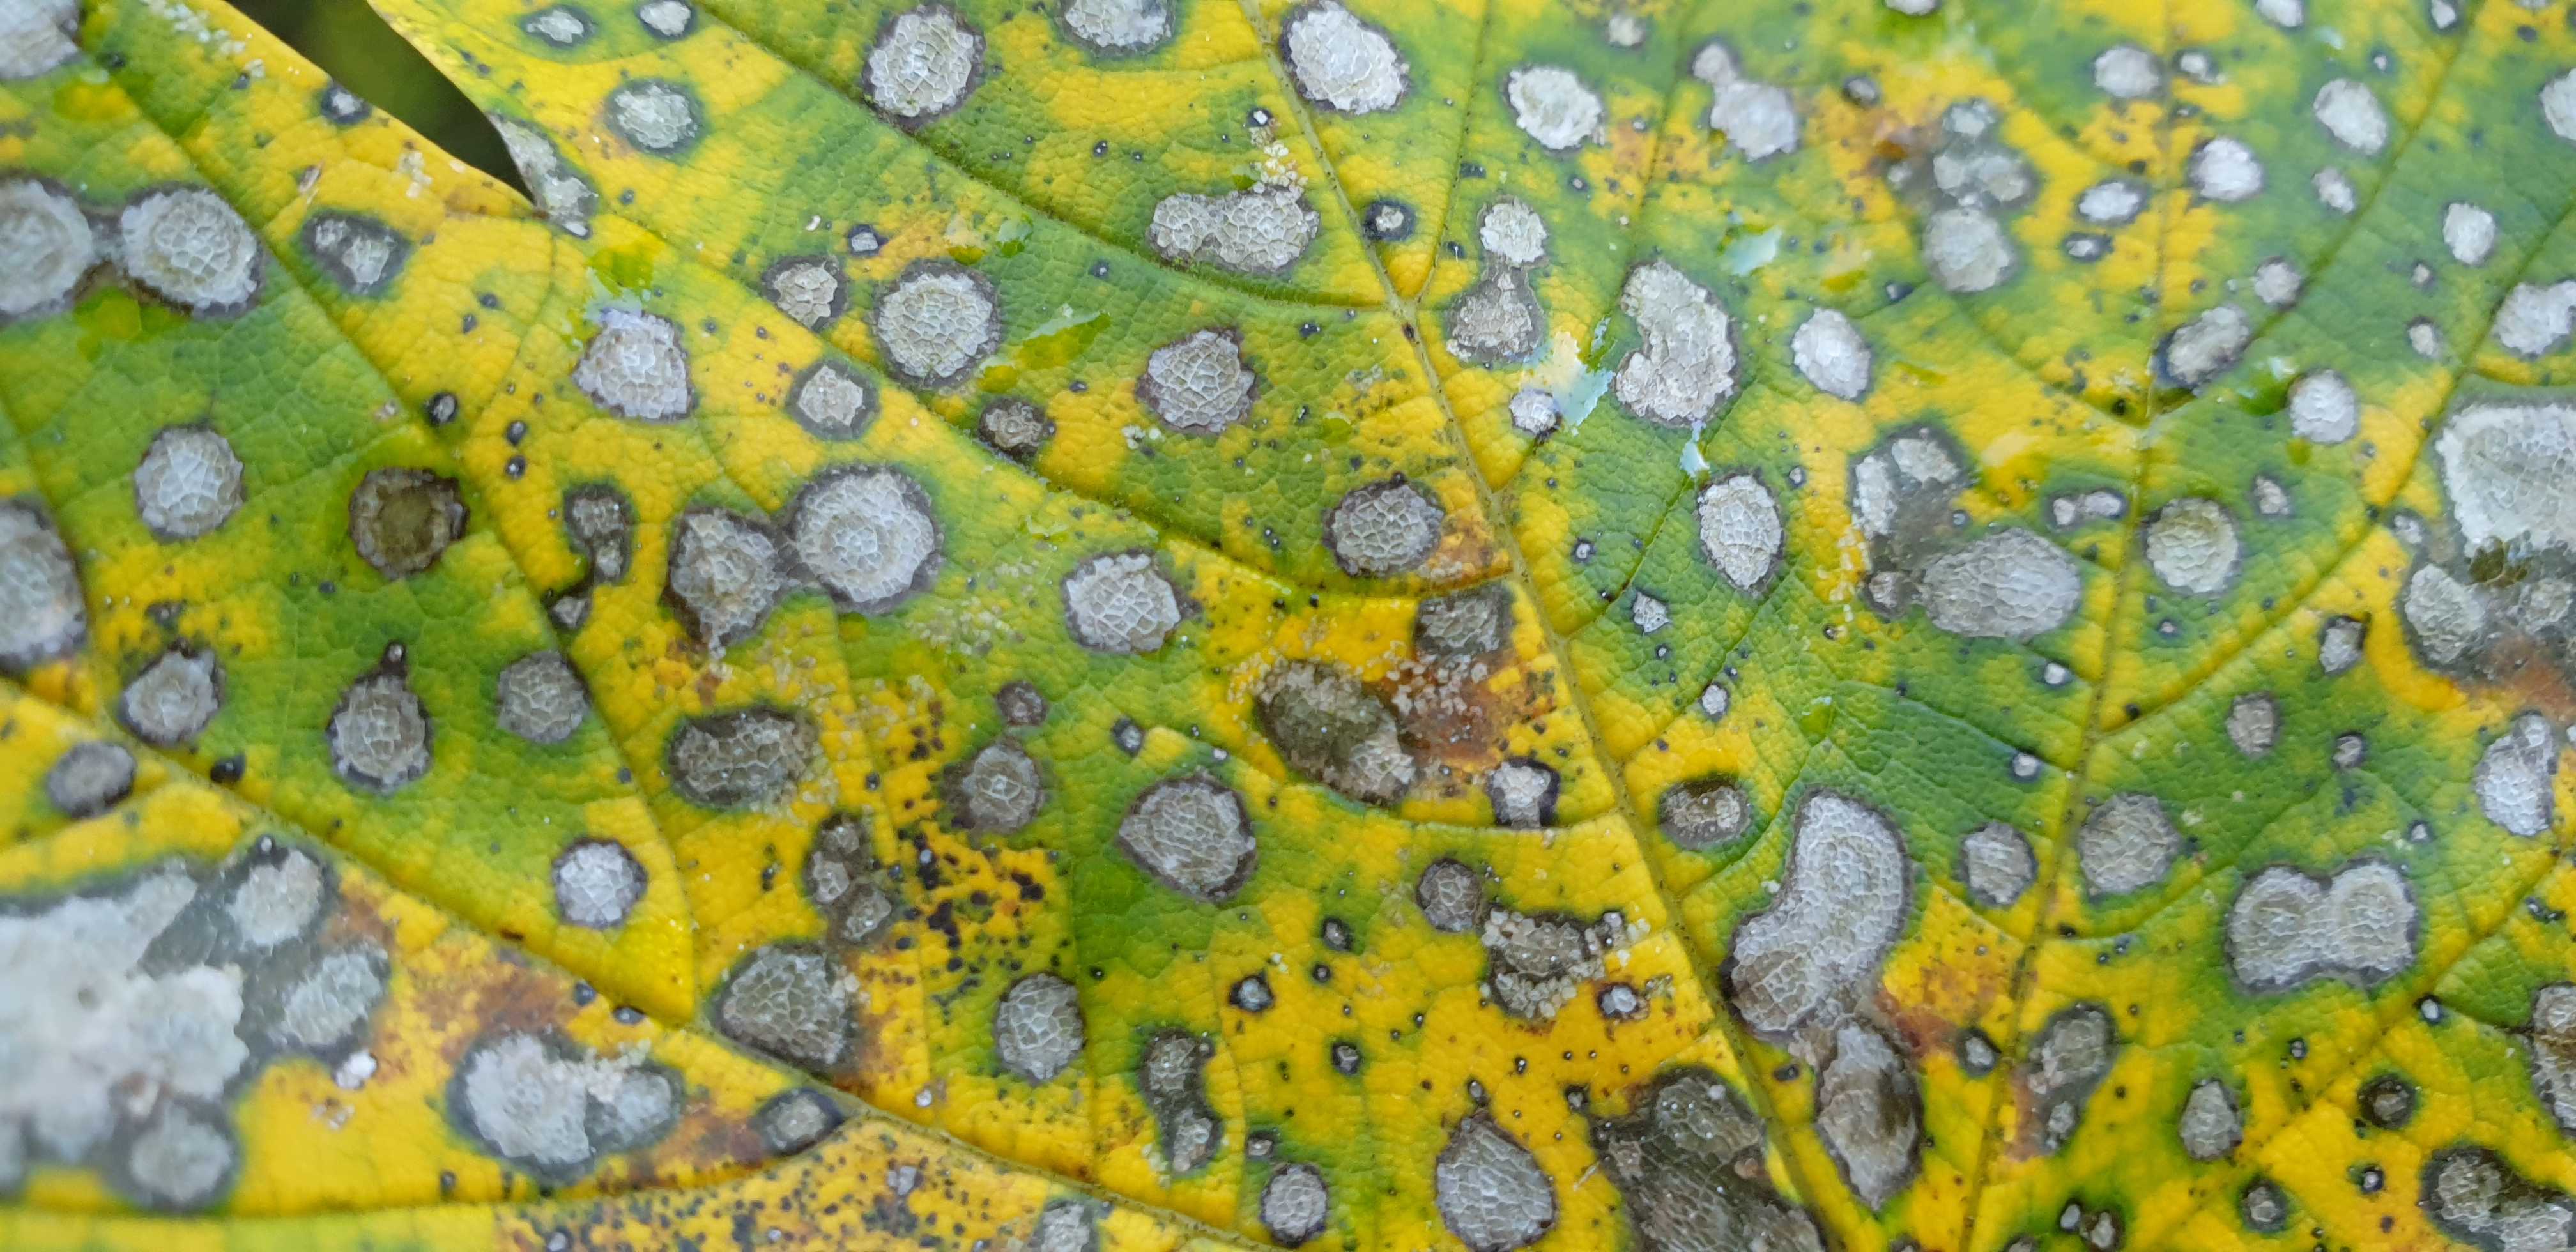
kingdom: Fungi
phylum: Ascomycota
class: Leotiomycetes
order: Rhytismatales
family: Rhytismataceae
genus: Rhytisma
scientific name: Rhytisma acerinum
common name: ahorn-rynkeplet
